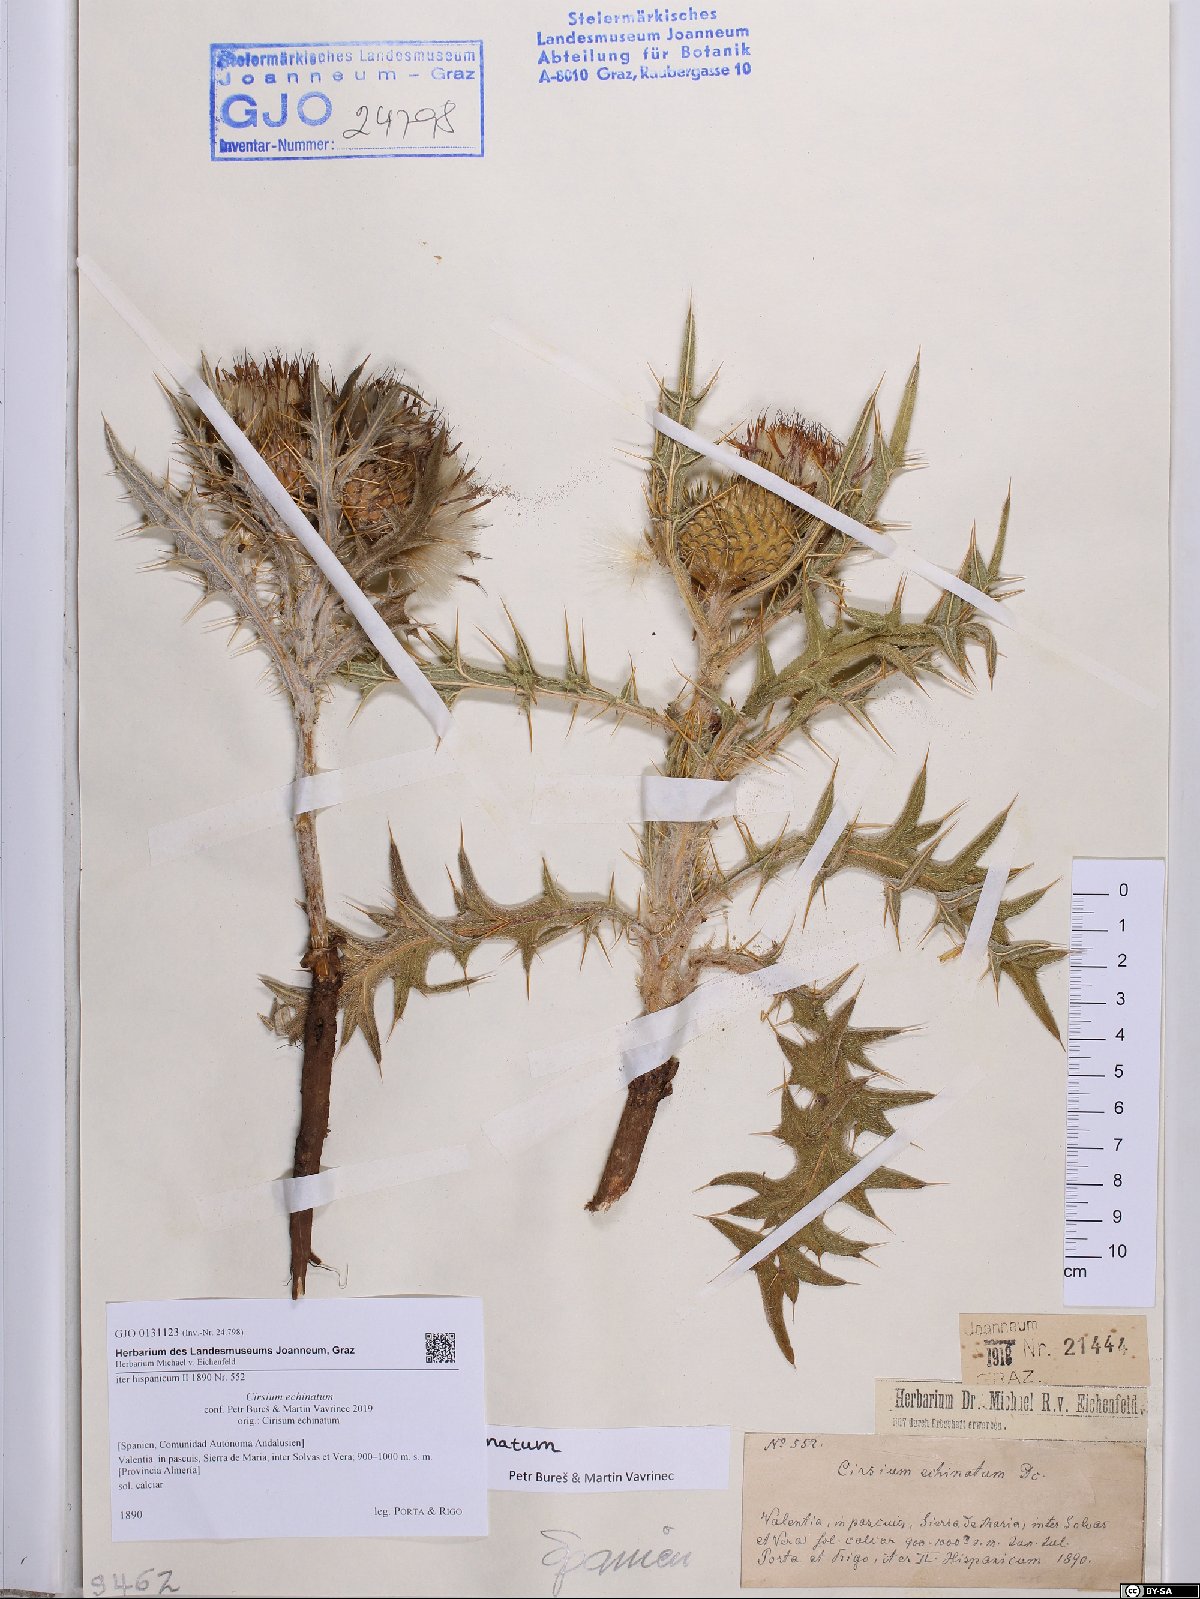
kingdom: Plantae
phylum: Tracheophyta
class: Magnoliopsida
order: Asterales
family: Asteraceae
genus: Lophiolepis
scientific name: Lophiolepis echinata
